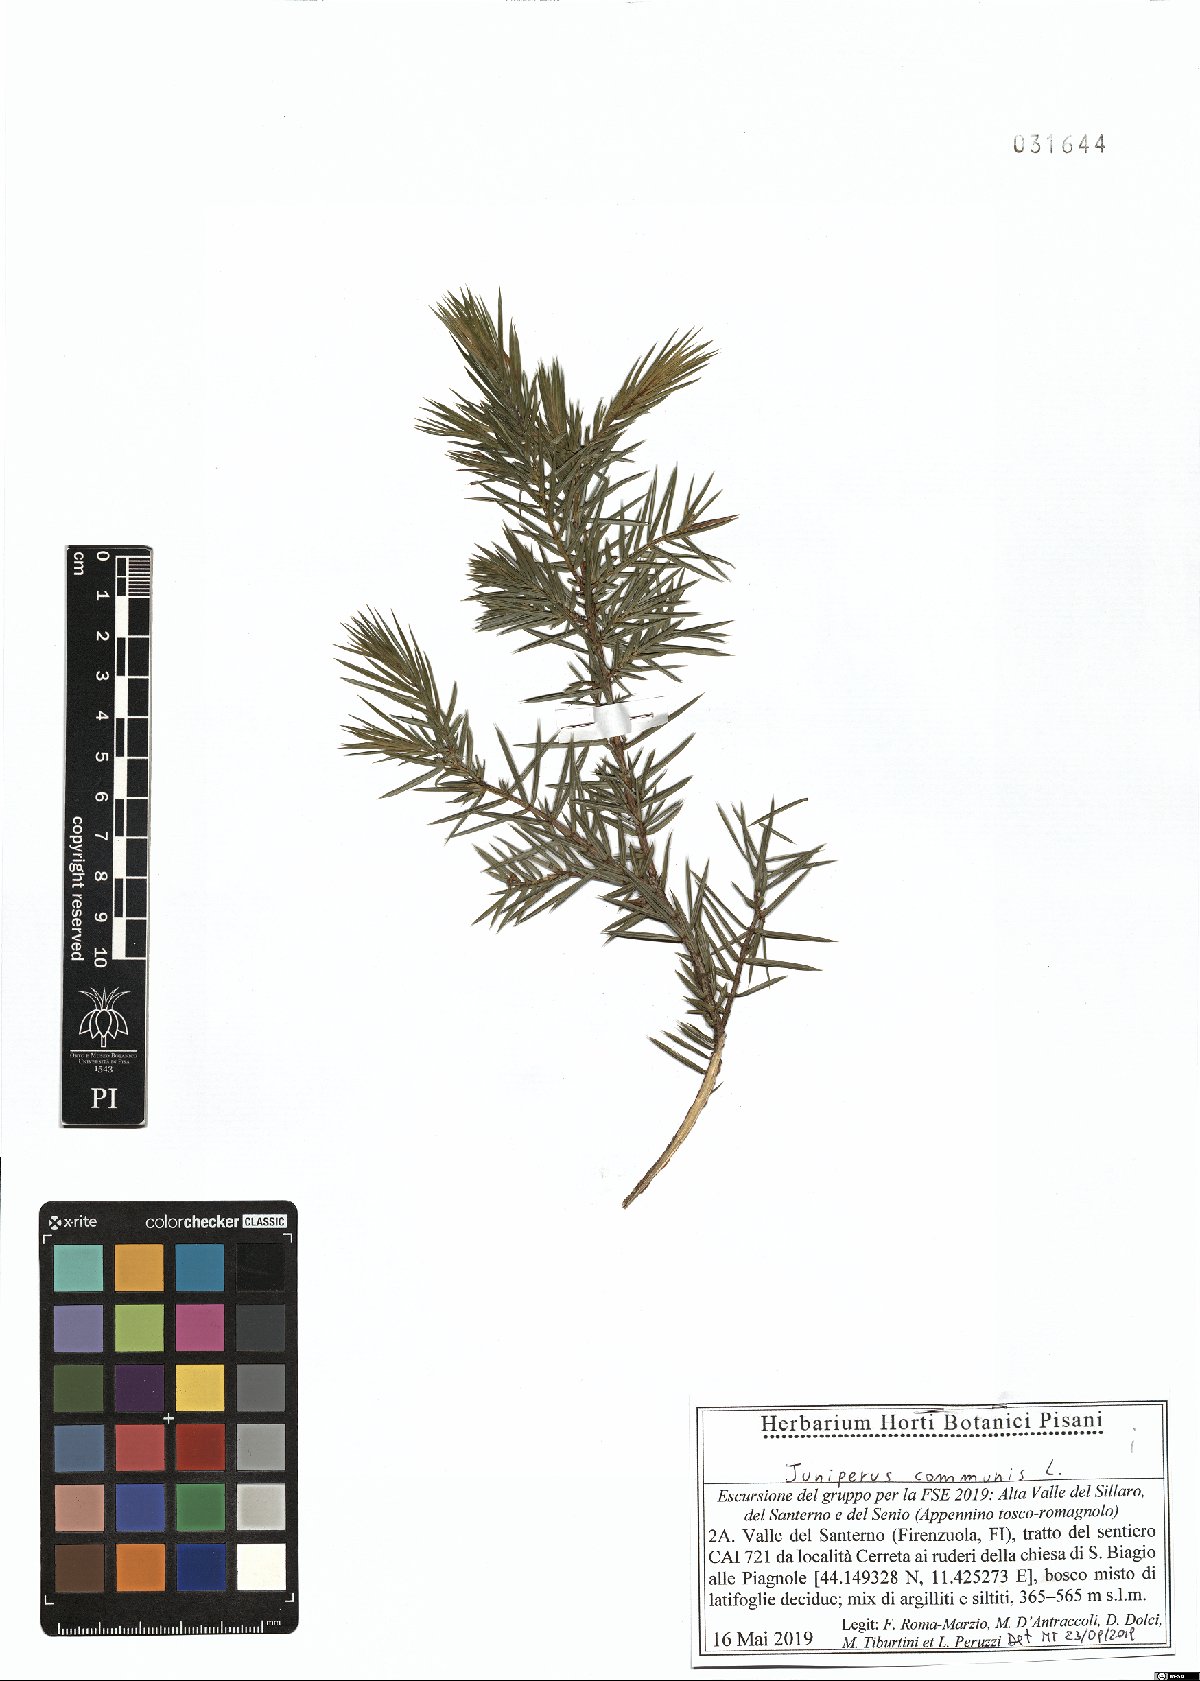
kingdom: Plantae
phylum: Tracheophyta
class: Pinopsida
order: Pinales
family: Cupressaceae
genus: Juniperus
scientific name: Juniperus communis
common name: Common juniper
